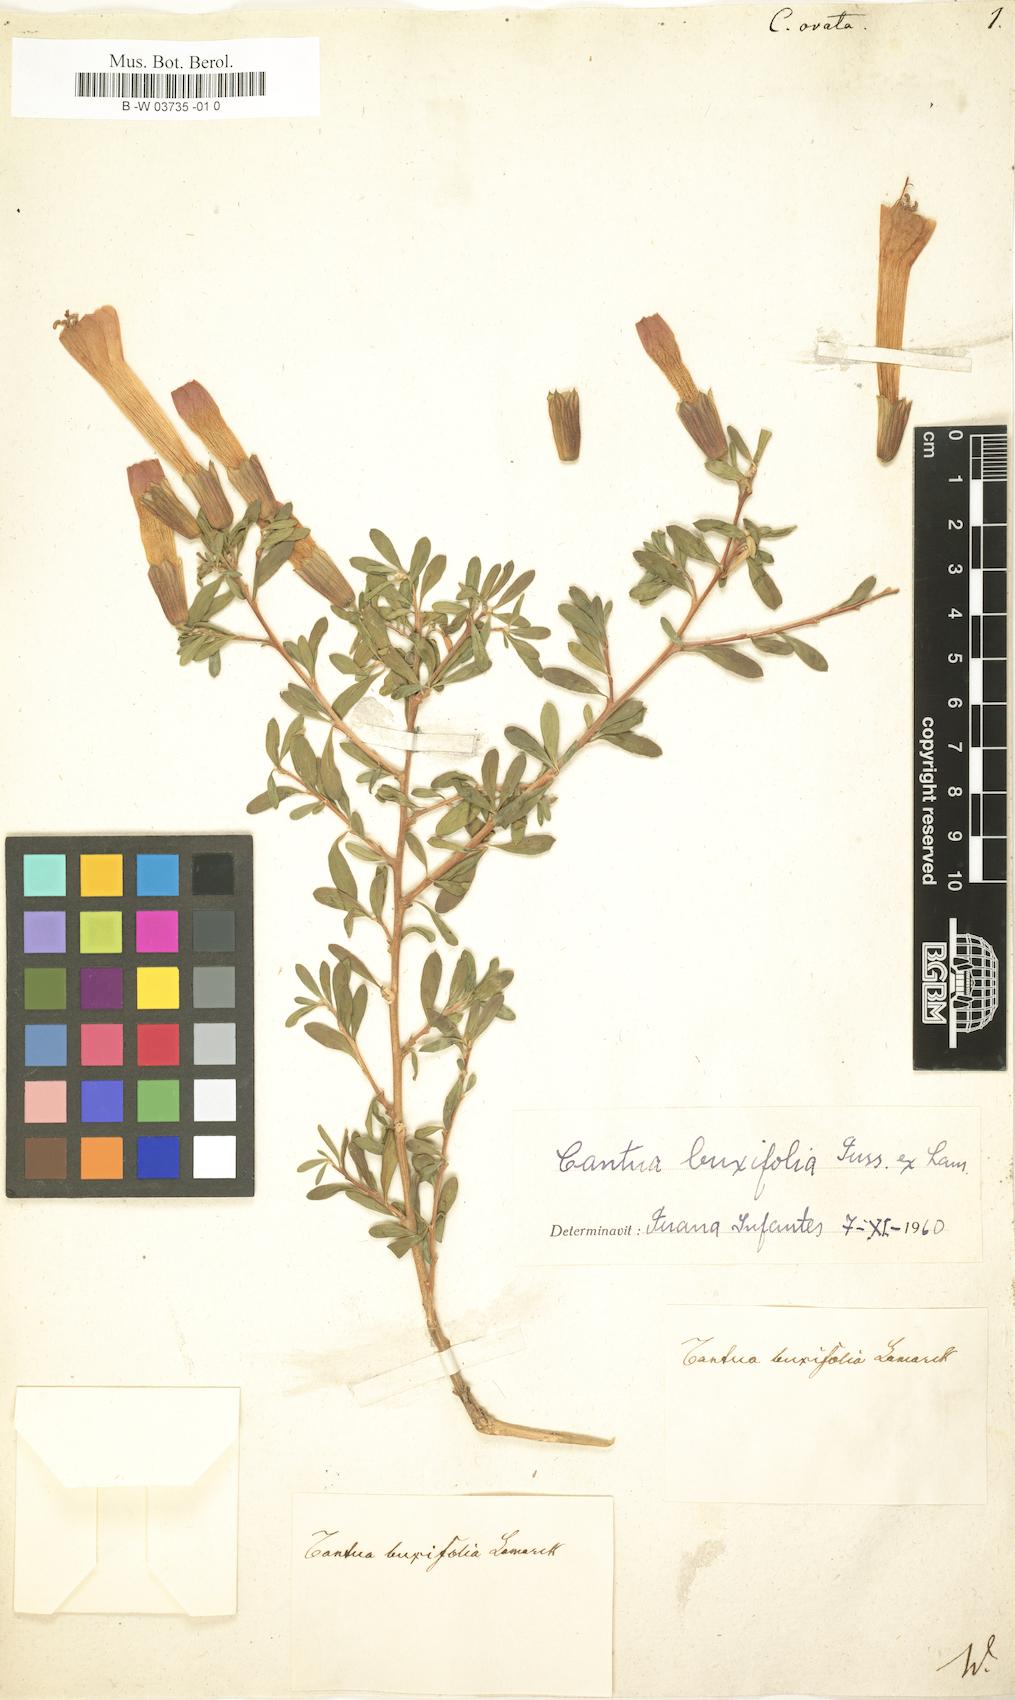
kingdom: Plantae
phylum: Tracheophyta
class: Magnoliopsida
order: Ericales
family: Polemoniaceae
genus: Cantua
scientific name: Cantua ovata
